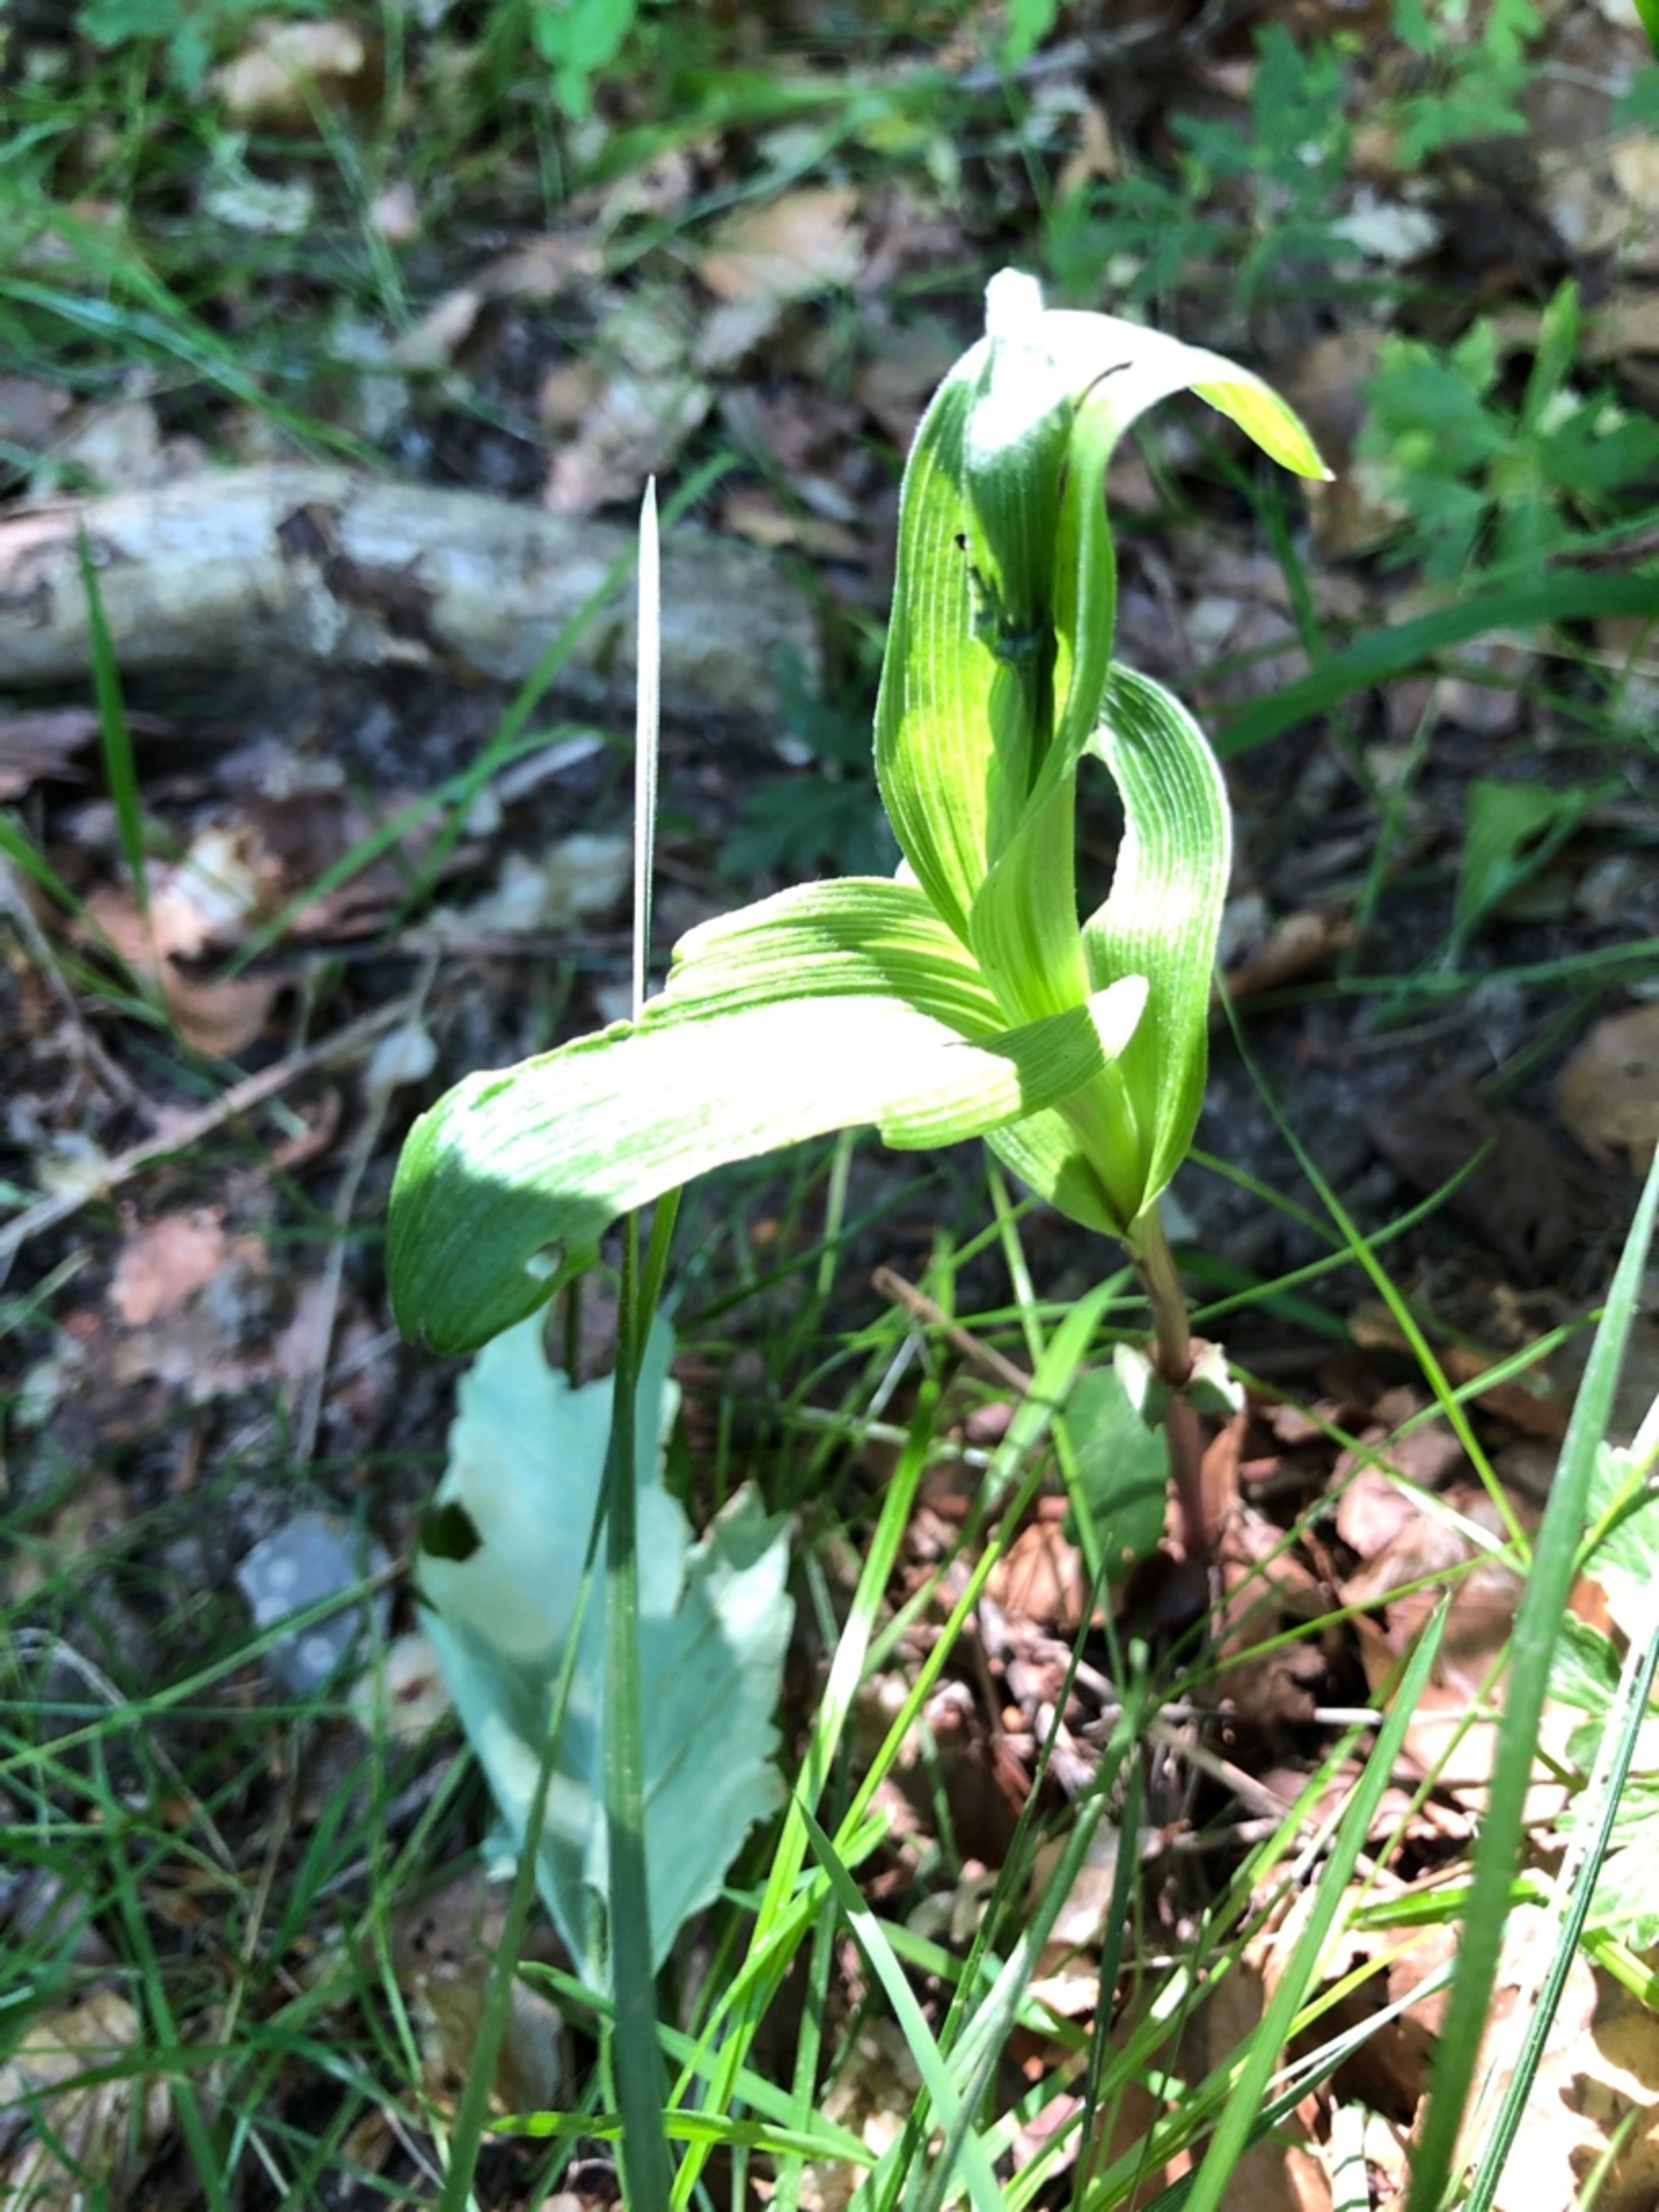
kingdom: Plantae
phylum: Tracheophyta
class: Liliopsida
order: Asparagales
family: Orchidaceae
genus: Epipactis
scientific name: Epipactis helleborine
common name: Skov-hullæbe
